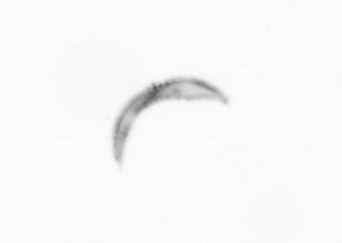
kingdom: Chromista
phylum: Ochrophyta
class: Bacillariophyceae
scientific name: Bacillariophyceae
